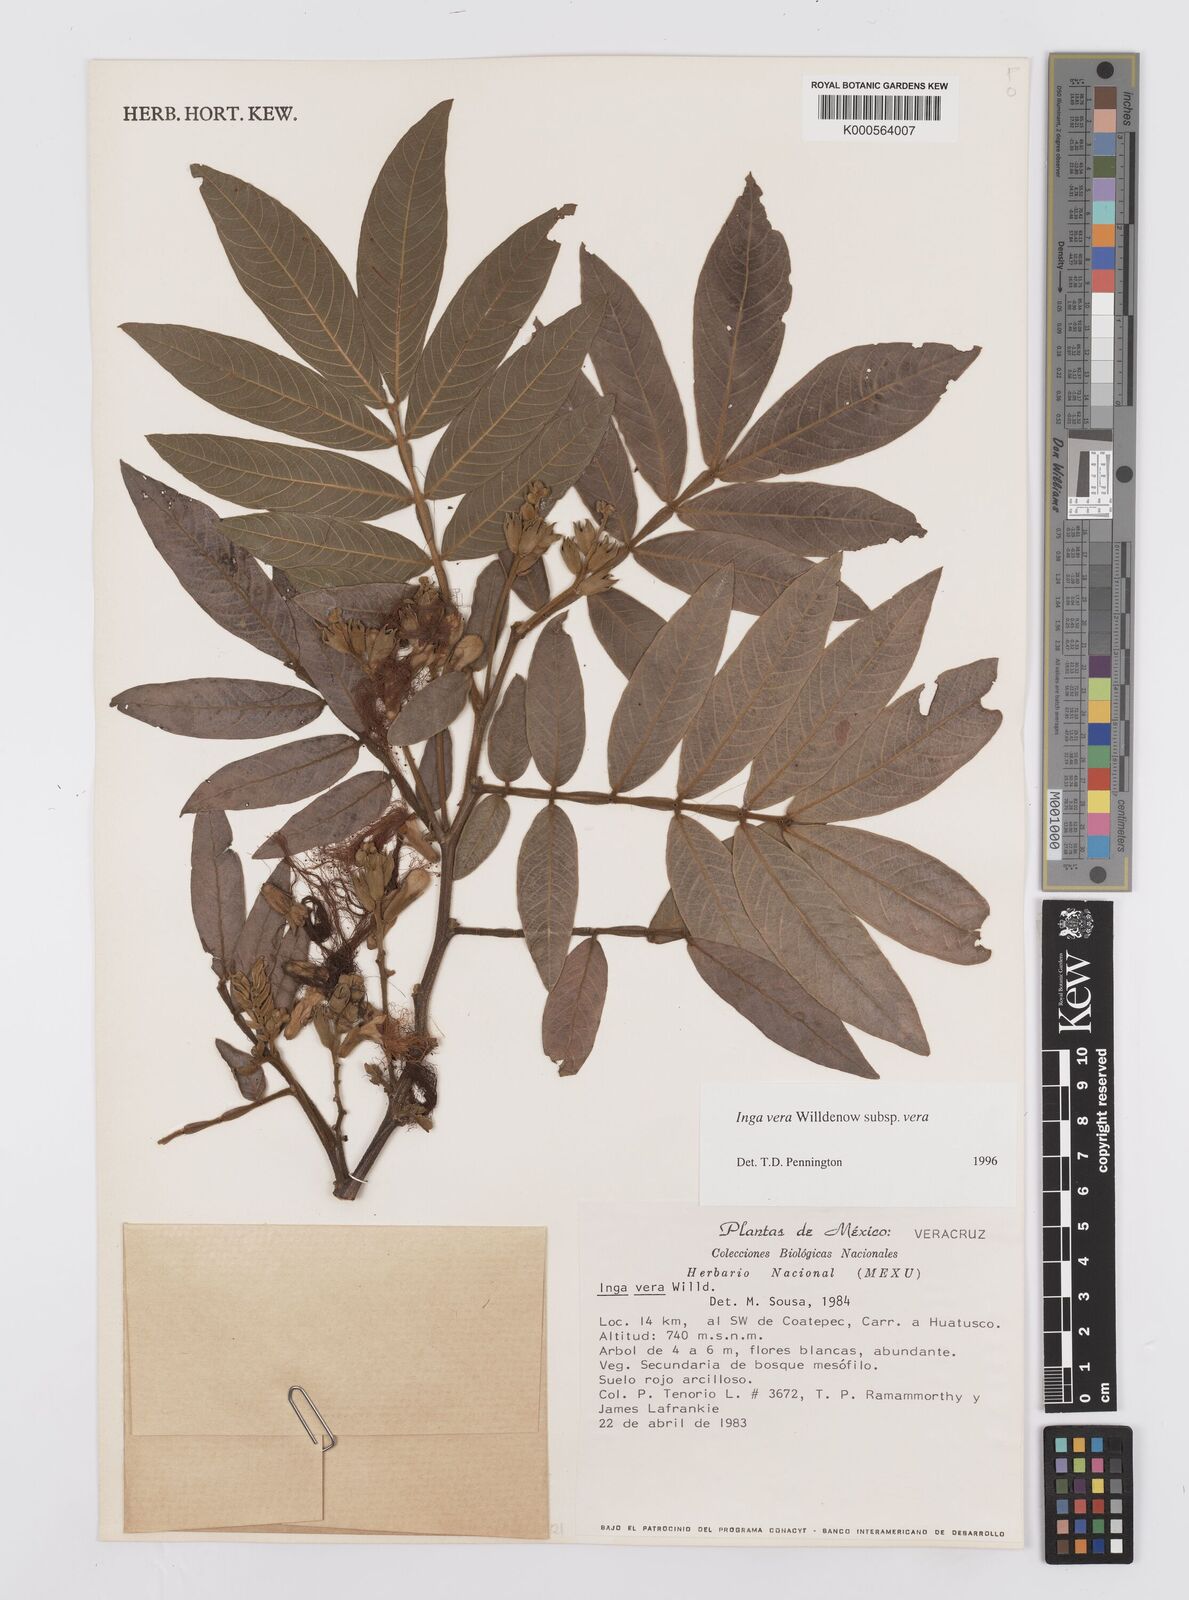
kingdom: Plantae
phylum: Tracheophyta
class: Magnoliopsida
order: Fabales
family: Fabaceae
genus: Inga
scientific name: Inga vera
